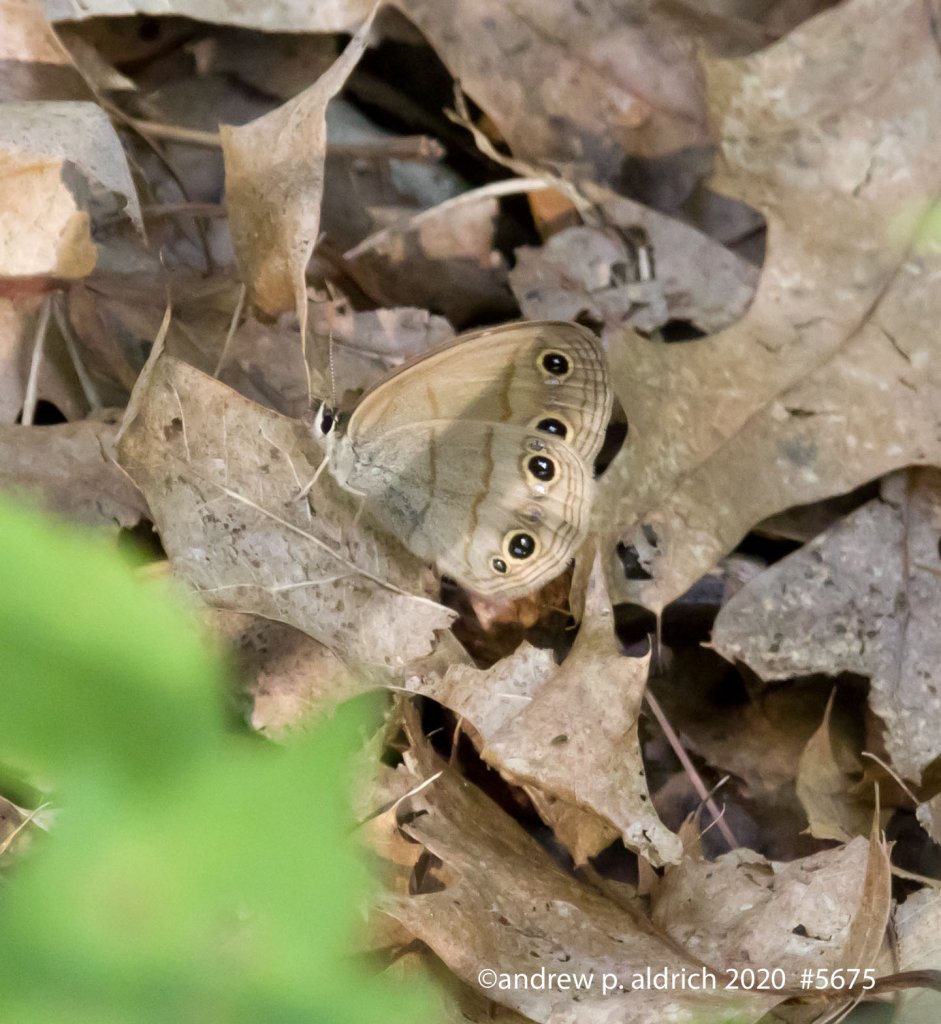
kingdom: Animalia
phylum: Arthropoda
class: Insecta
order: Lepidoptera
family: Nymphalidae
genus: Euptychia
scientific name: Euptychia cymela
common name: Little Wood Satyr
